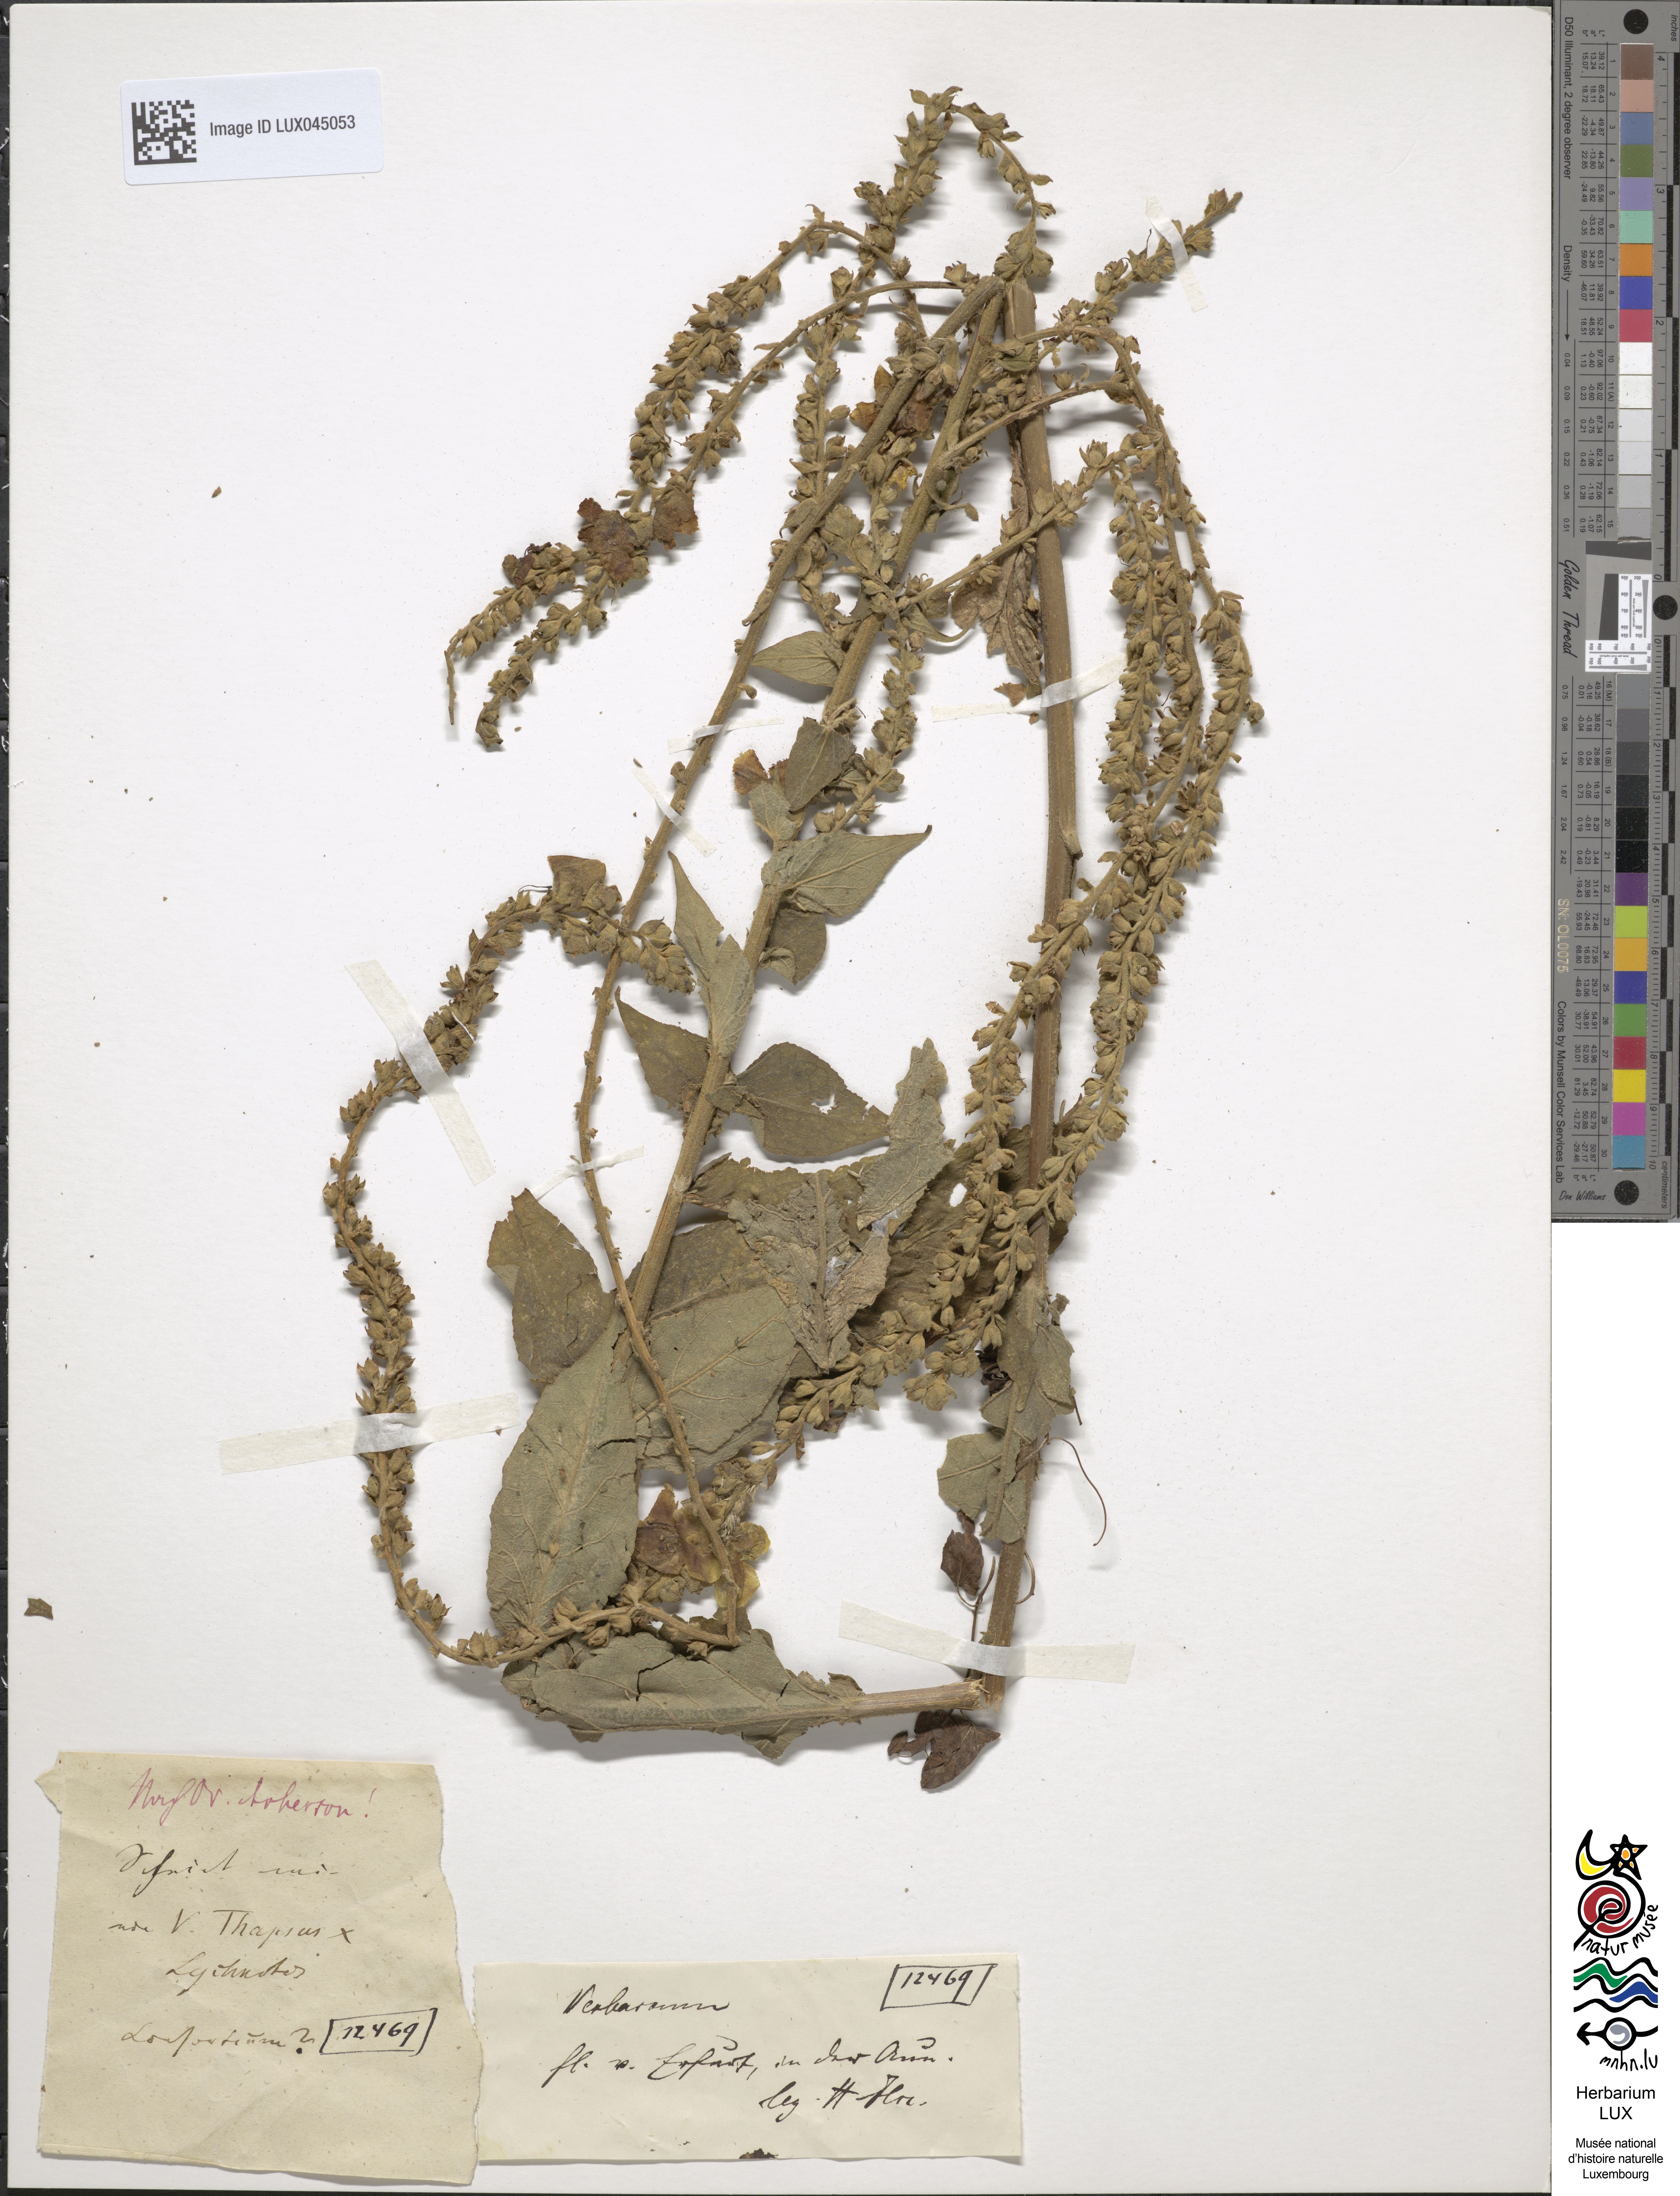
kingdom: Plantae
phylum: Tracheophyta
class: Magnoliopsida
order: Lamiales
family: Scrophulariaceae
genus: Verbascum
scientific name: Verbascum spurium
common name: Mullein
